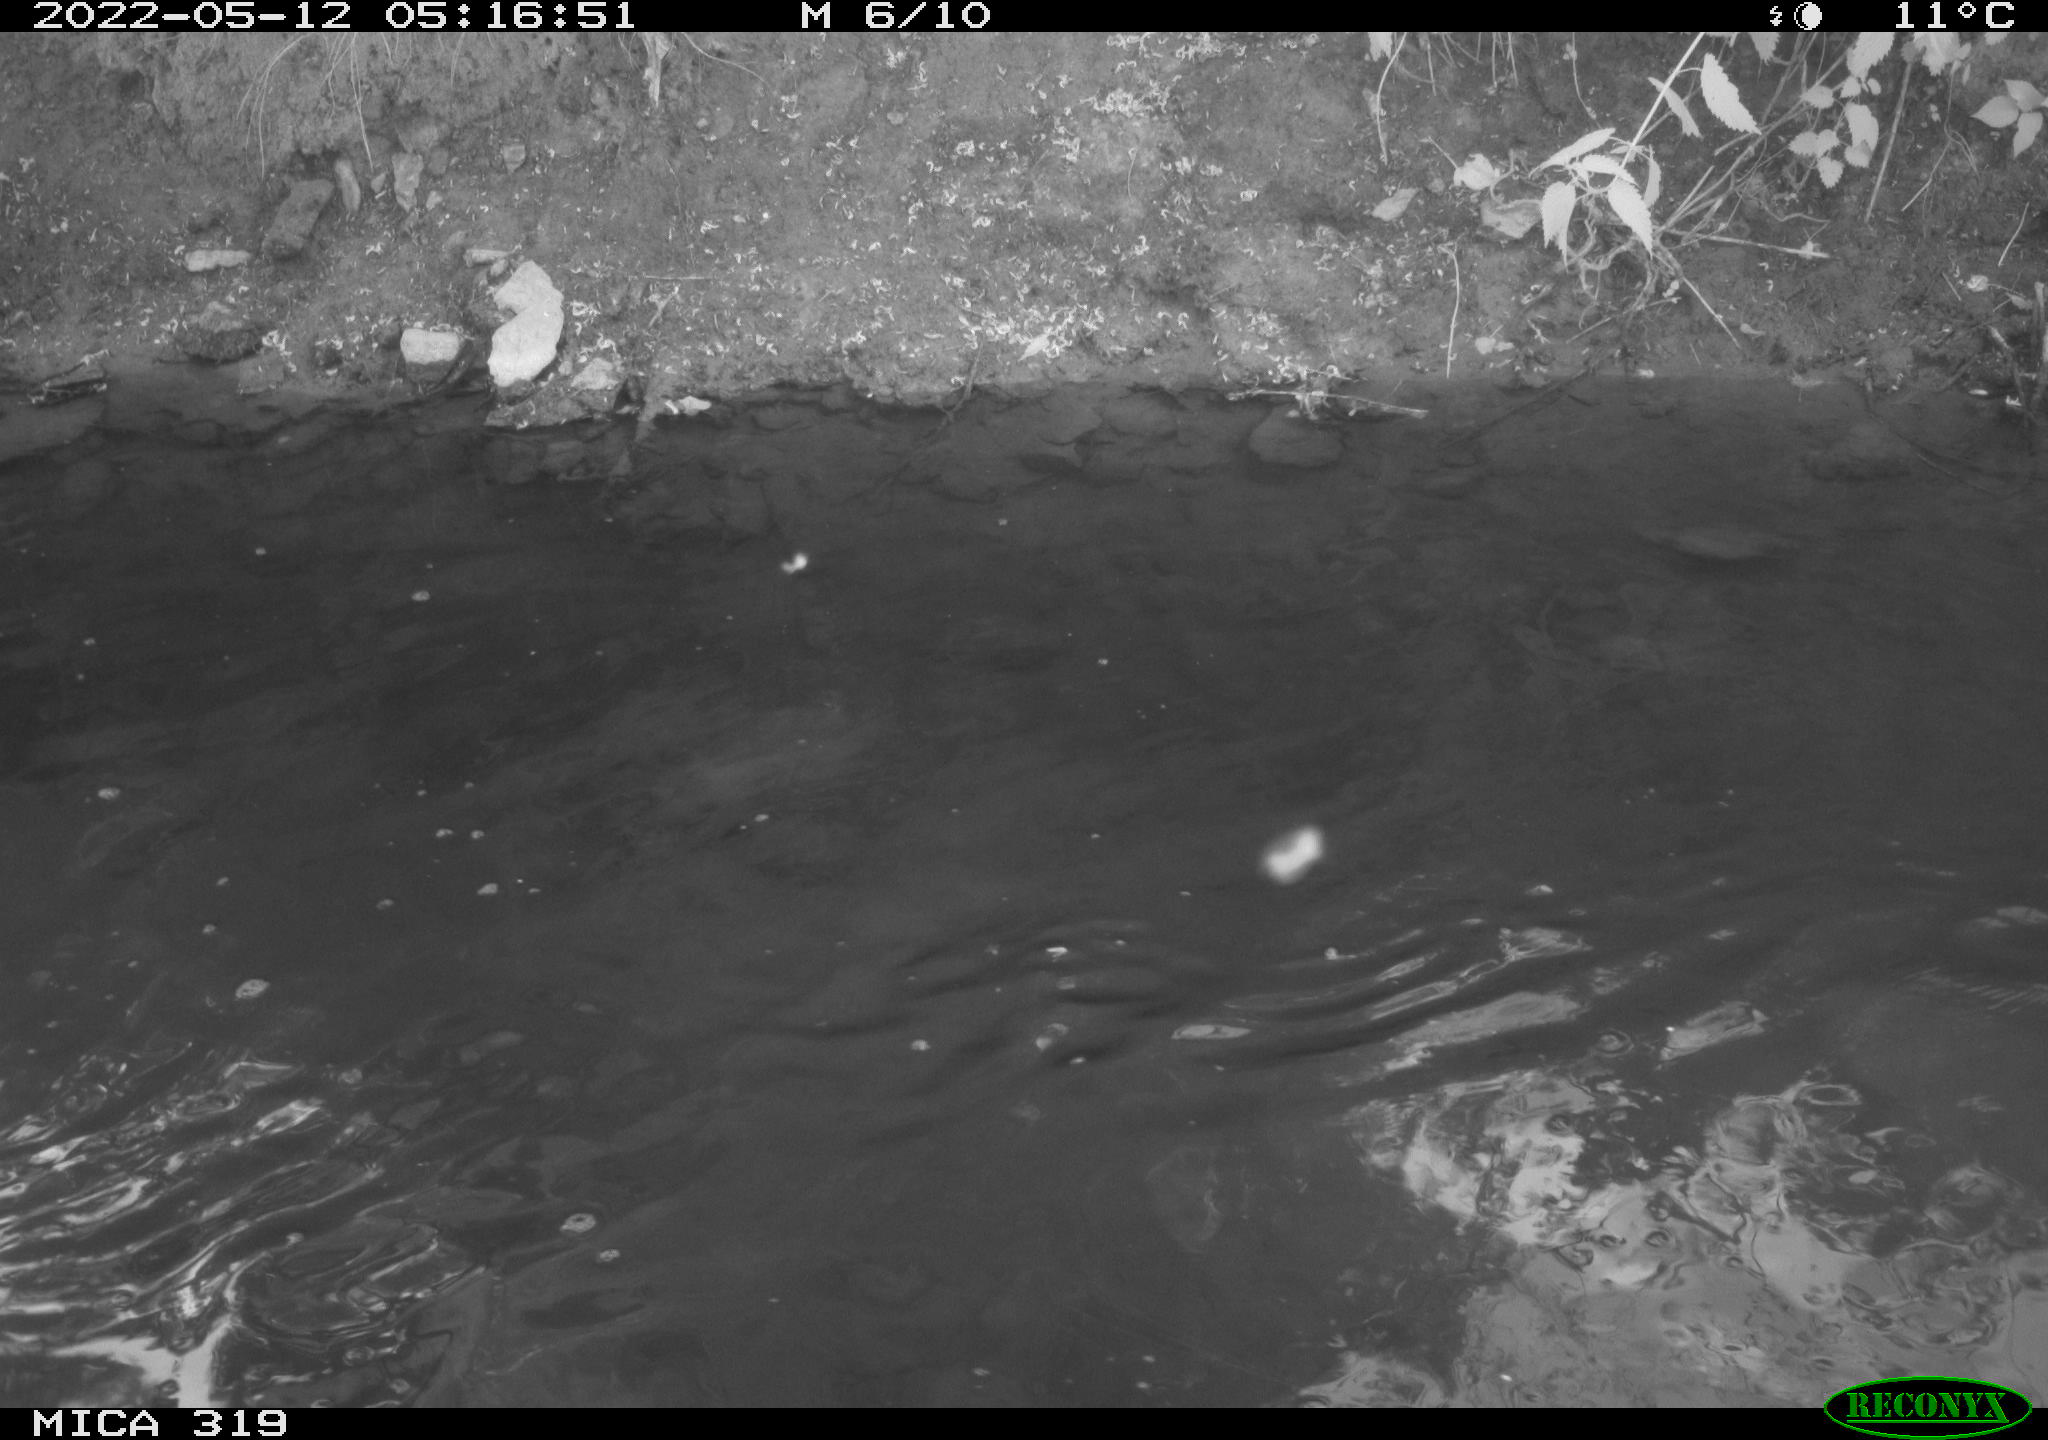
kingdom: Animalia
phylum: Chordata
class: Aves
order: Anseriformes
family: Anatidae
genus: Anas
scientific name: Anas
